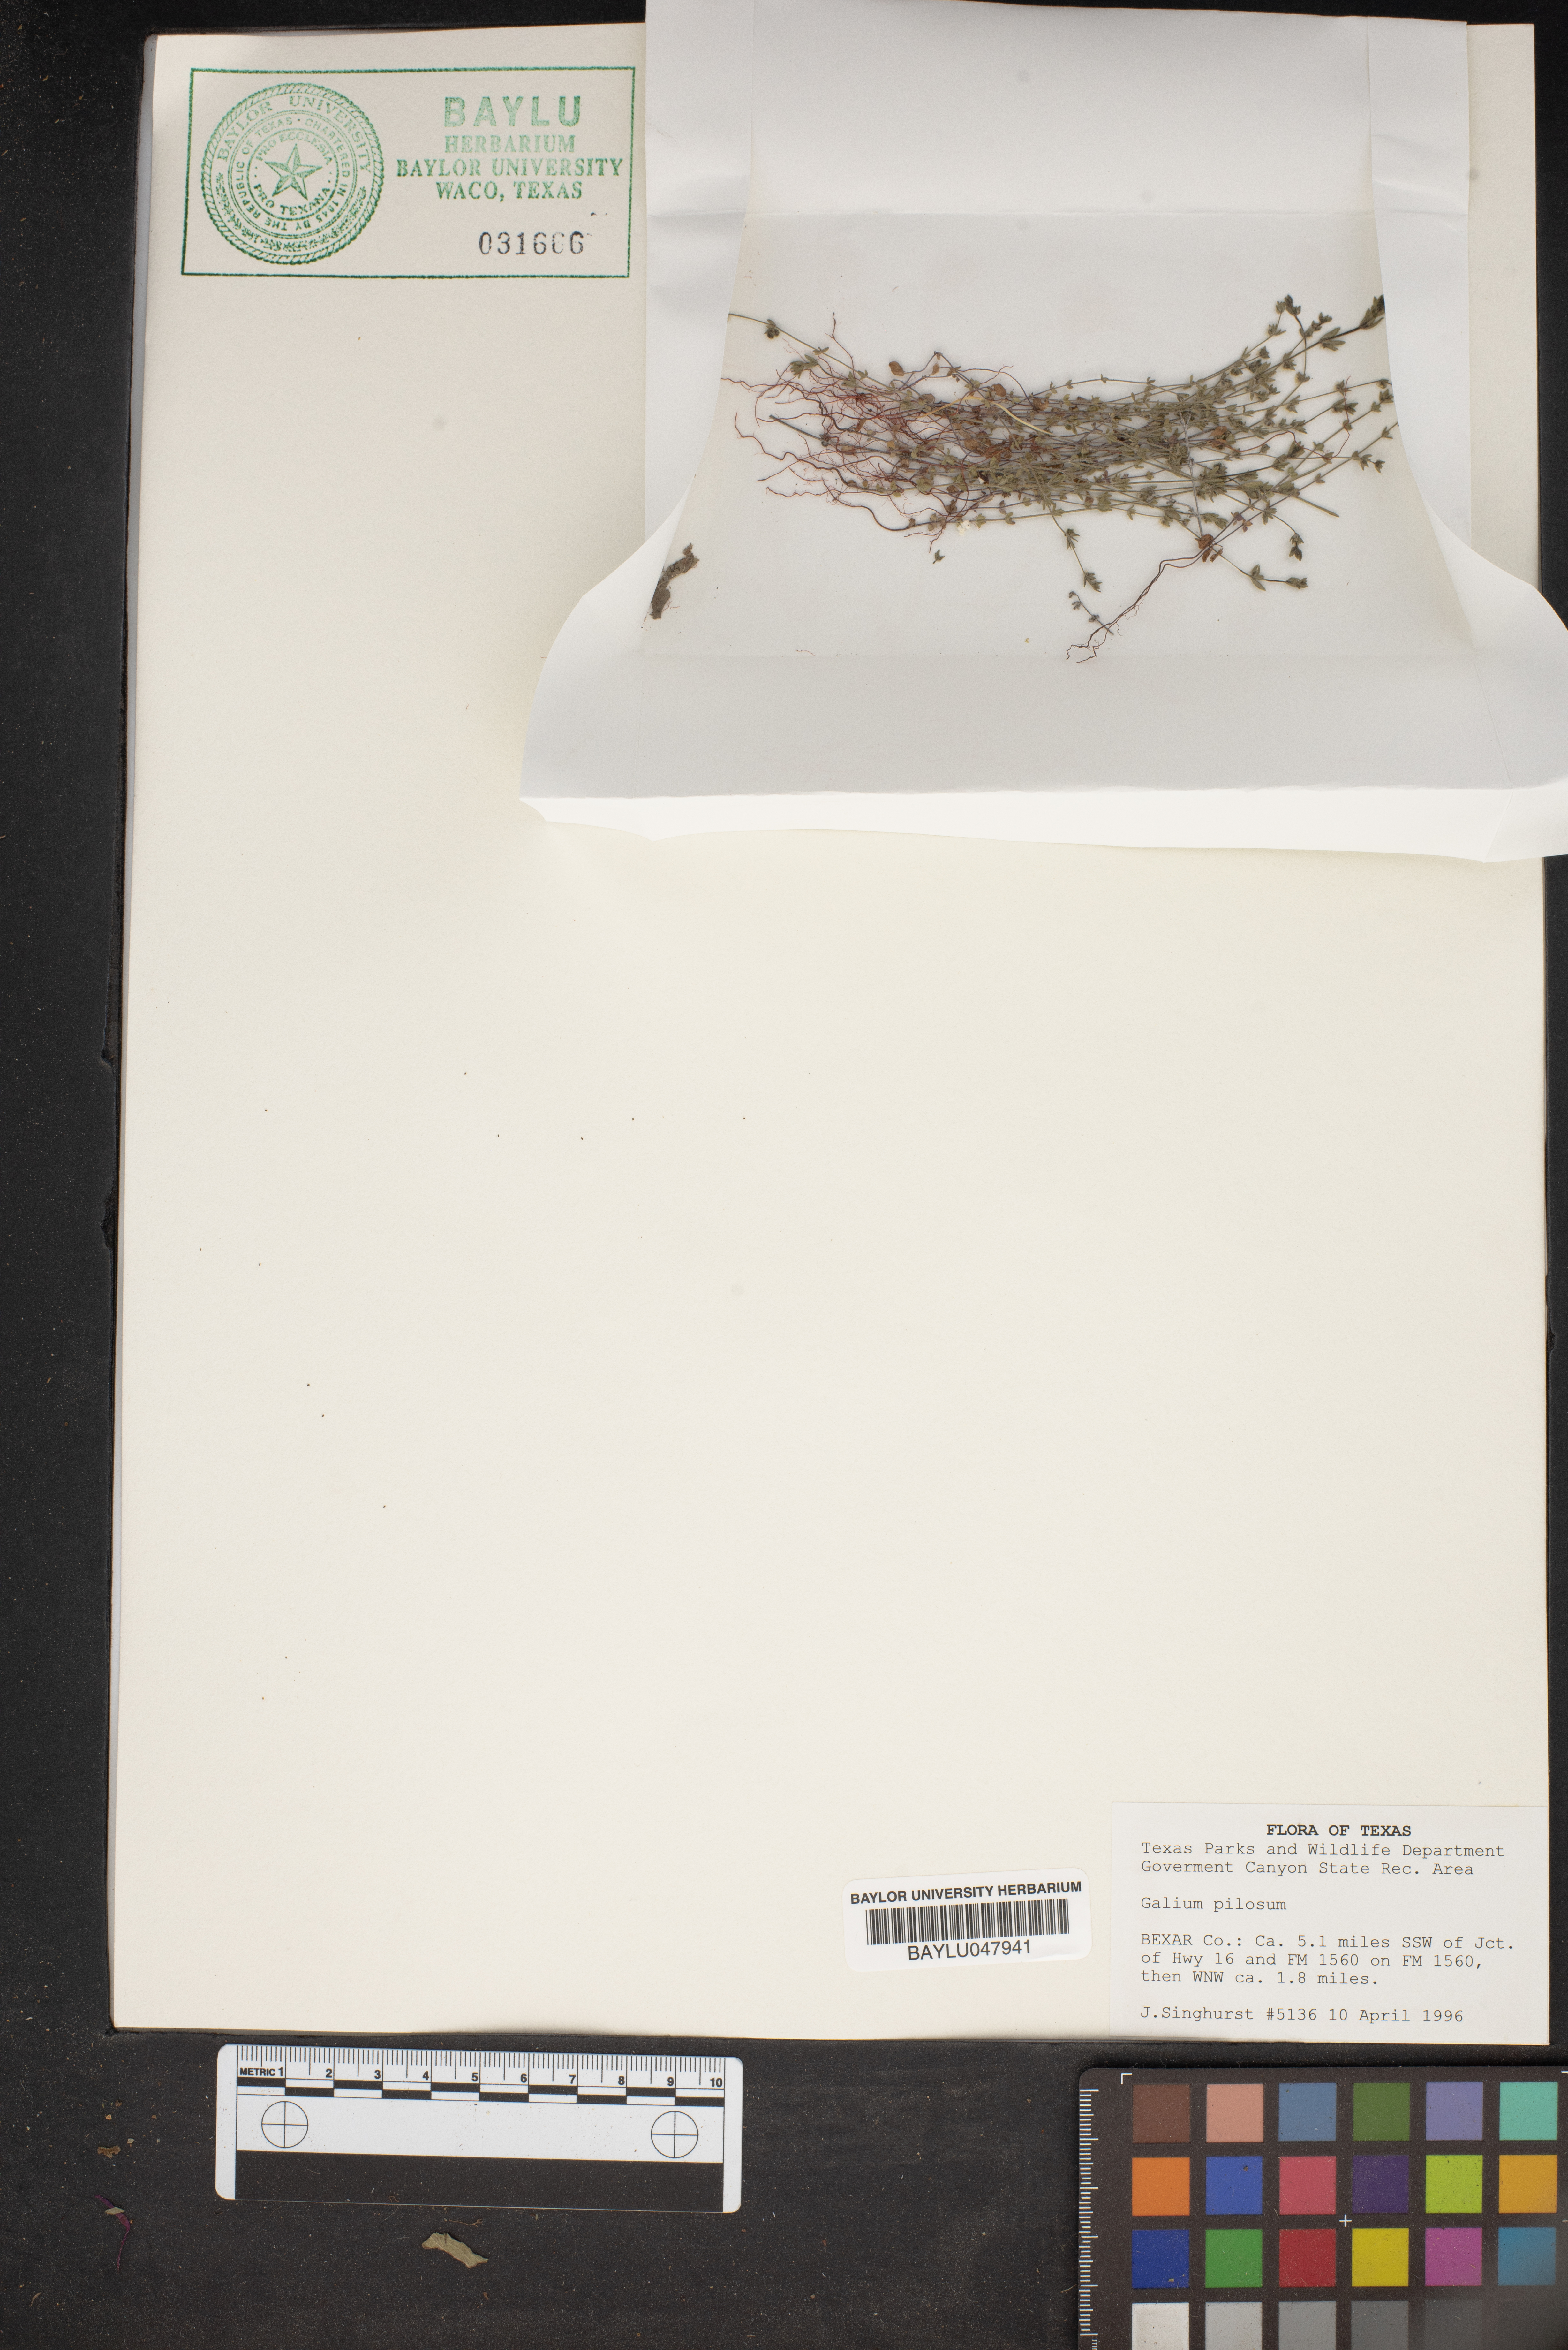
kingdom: Plantae
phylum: Tracheophyta
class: Magnoliopsida
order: Gentianales
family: Rubiaceae
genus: Galium
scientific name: Galium pilosum
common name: Hairy bedstraw
